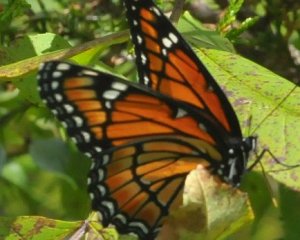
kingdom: Animalia
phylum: Arthropoda
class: Insecta
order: Lepidoptera
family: Nymphalidae
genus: Limenitis
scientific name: Limenitis archippus
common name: Viceroy
